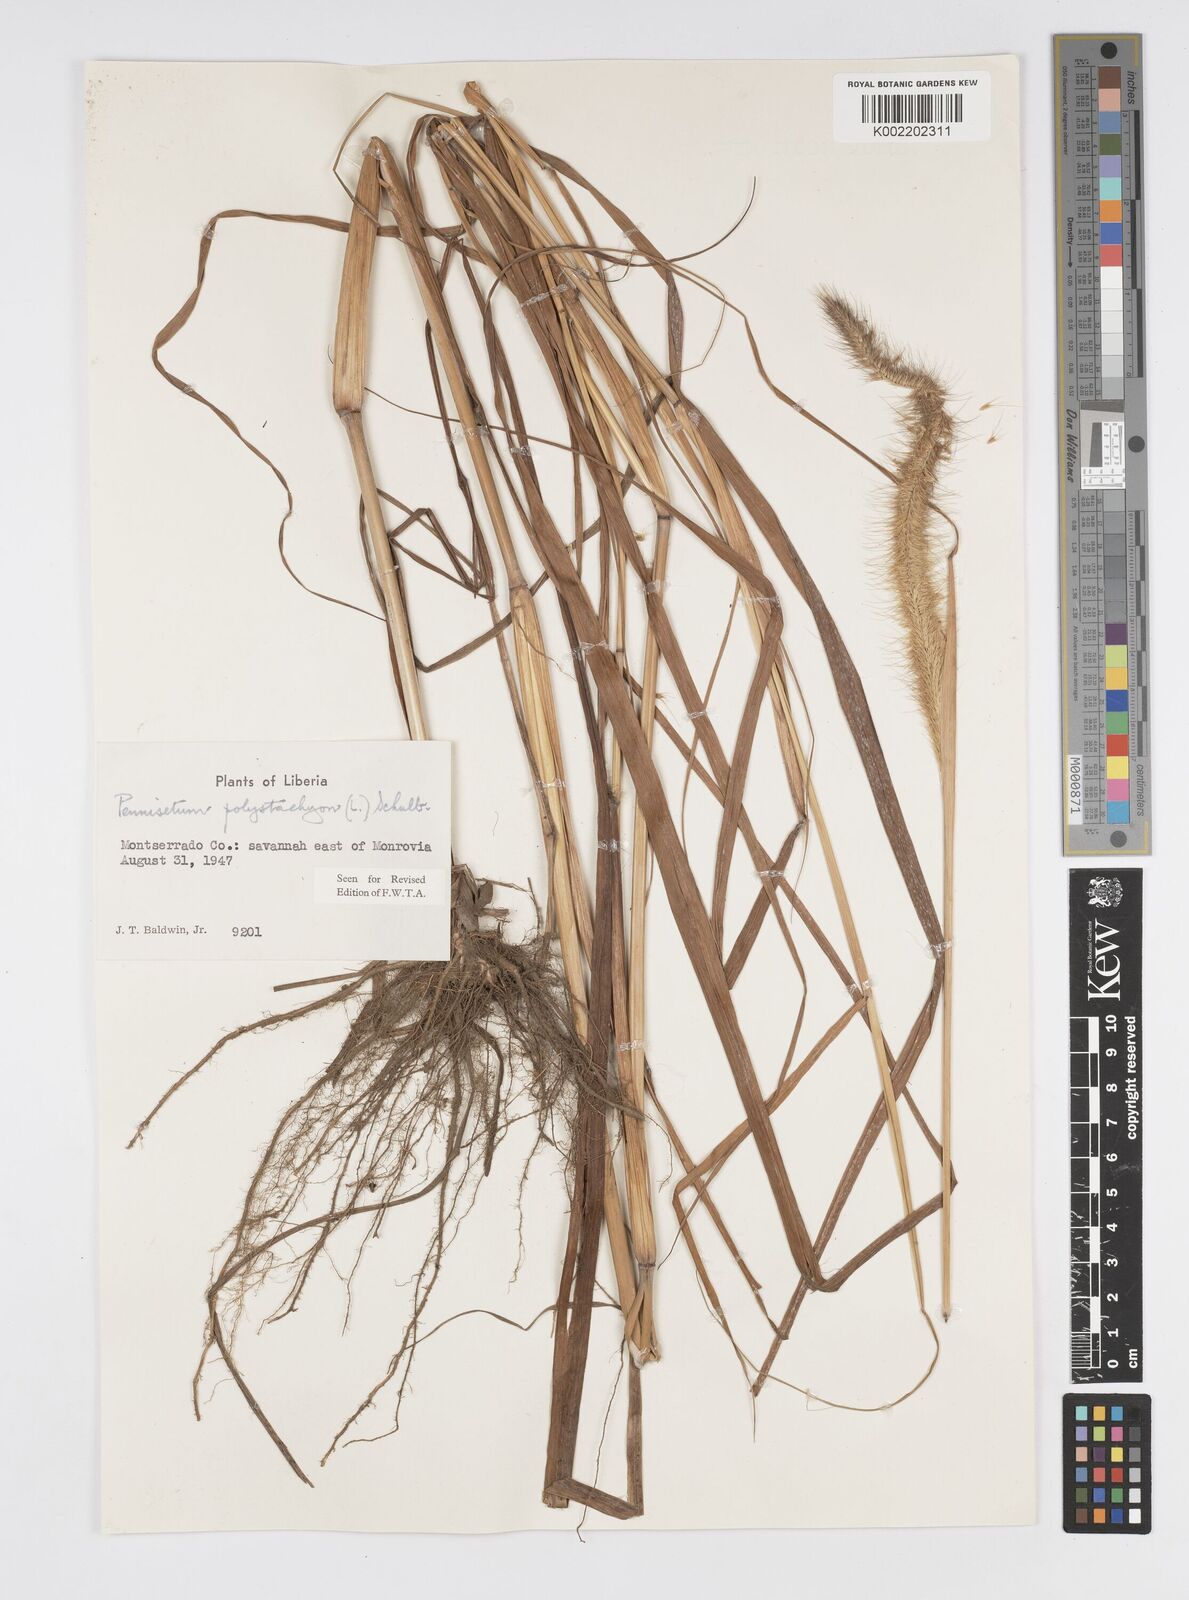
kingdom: Plantae
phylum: Tracheophyta
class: Liliopsida
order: Poales
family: Poaceae
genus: Setaria
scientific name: Setaria parviflora
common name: Knotroot bristle-grass
